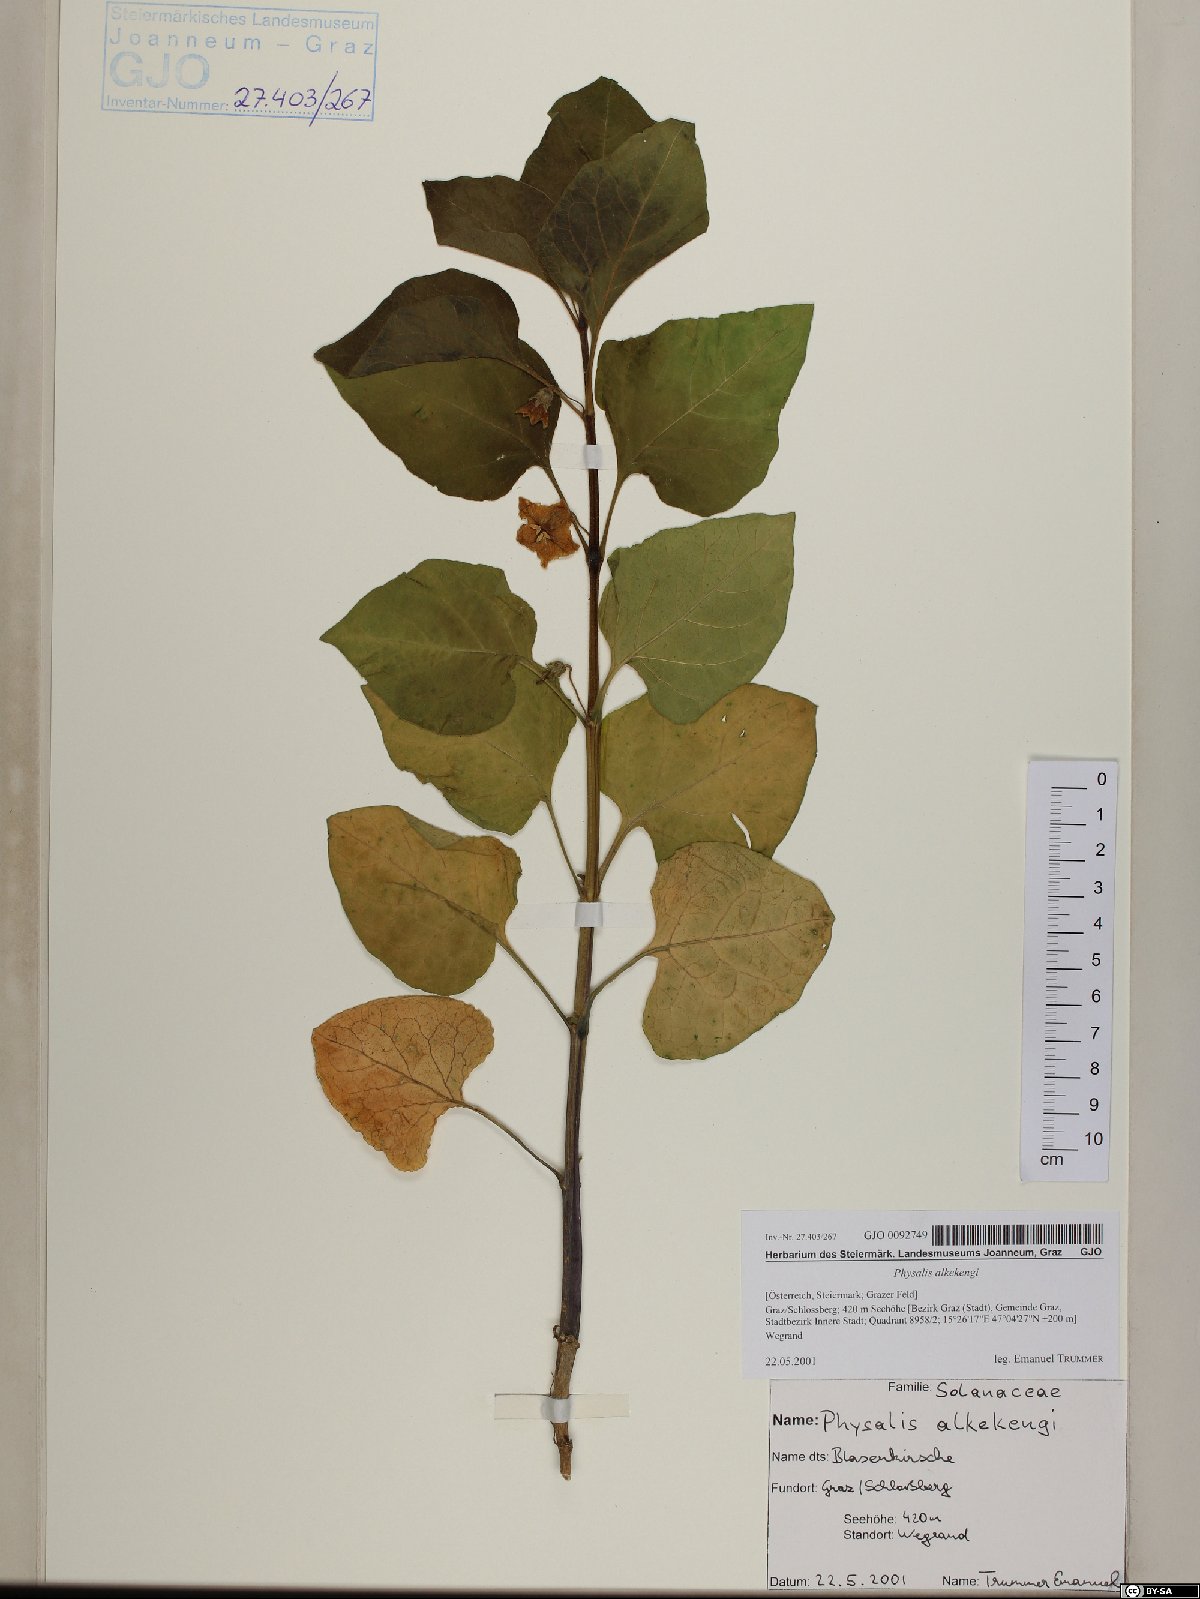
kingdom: Plantae
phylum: Tracheophyta
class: Magnoliopsida
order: Solanales
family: Solanaceae
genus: Alkekengi
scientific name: Alkekengi officinarum
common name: Japanese-lantern
